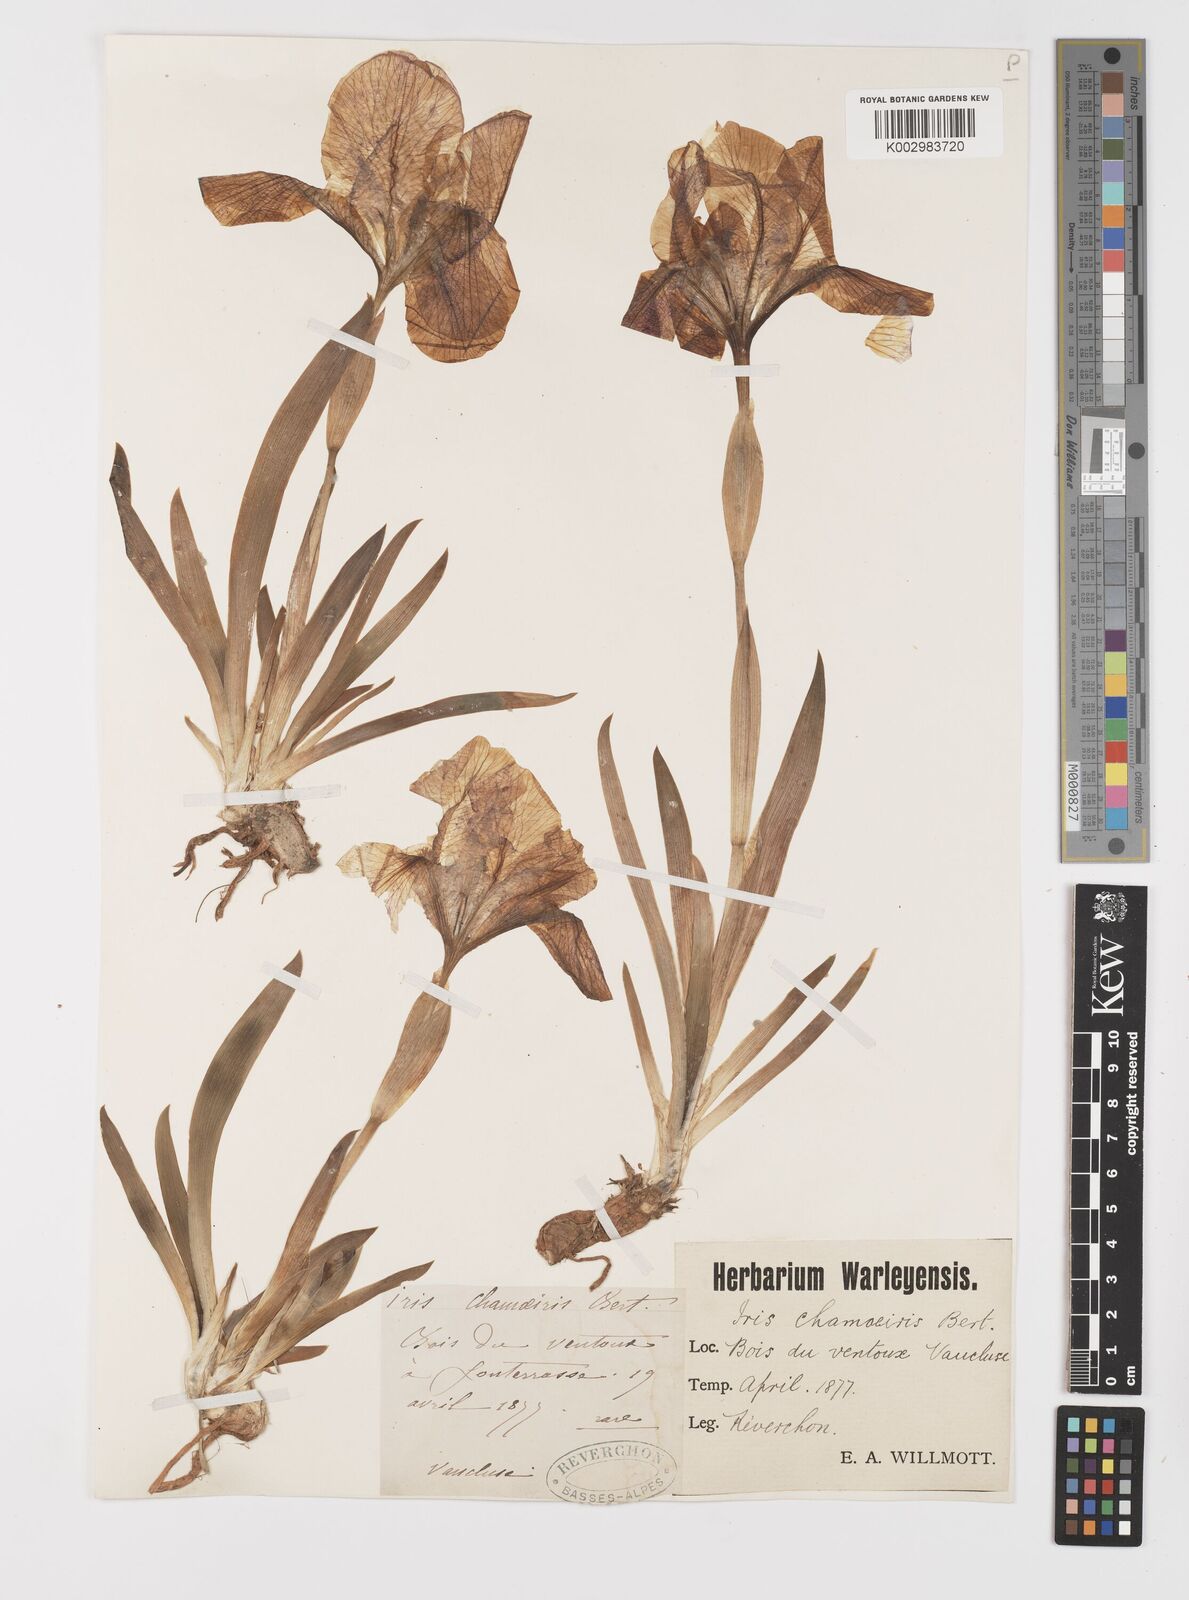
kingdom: Plantae
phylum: Tracheophyta
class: Liliopsida
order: Asparagales
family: Iridaceae
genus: Iris
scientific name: Iris lutescens
